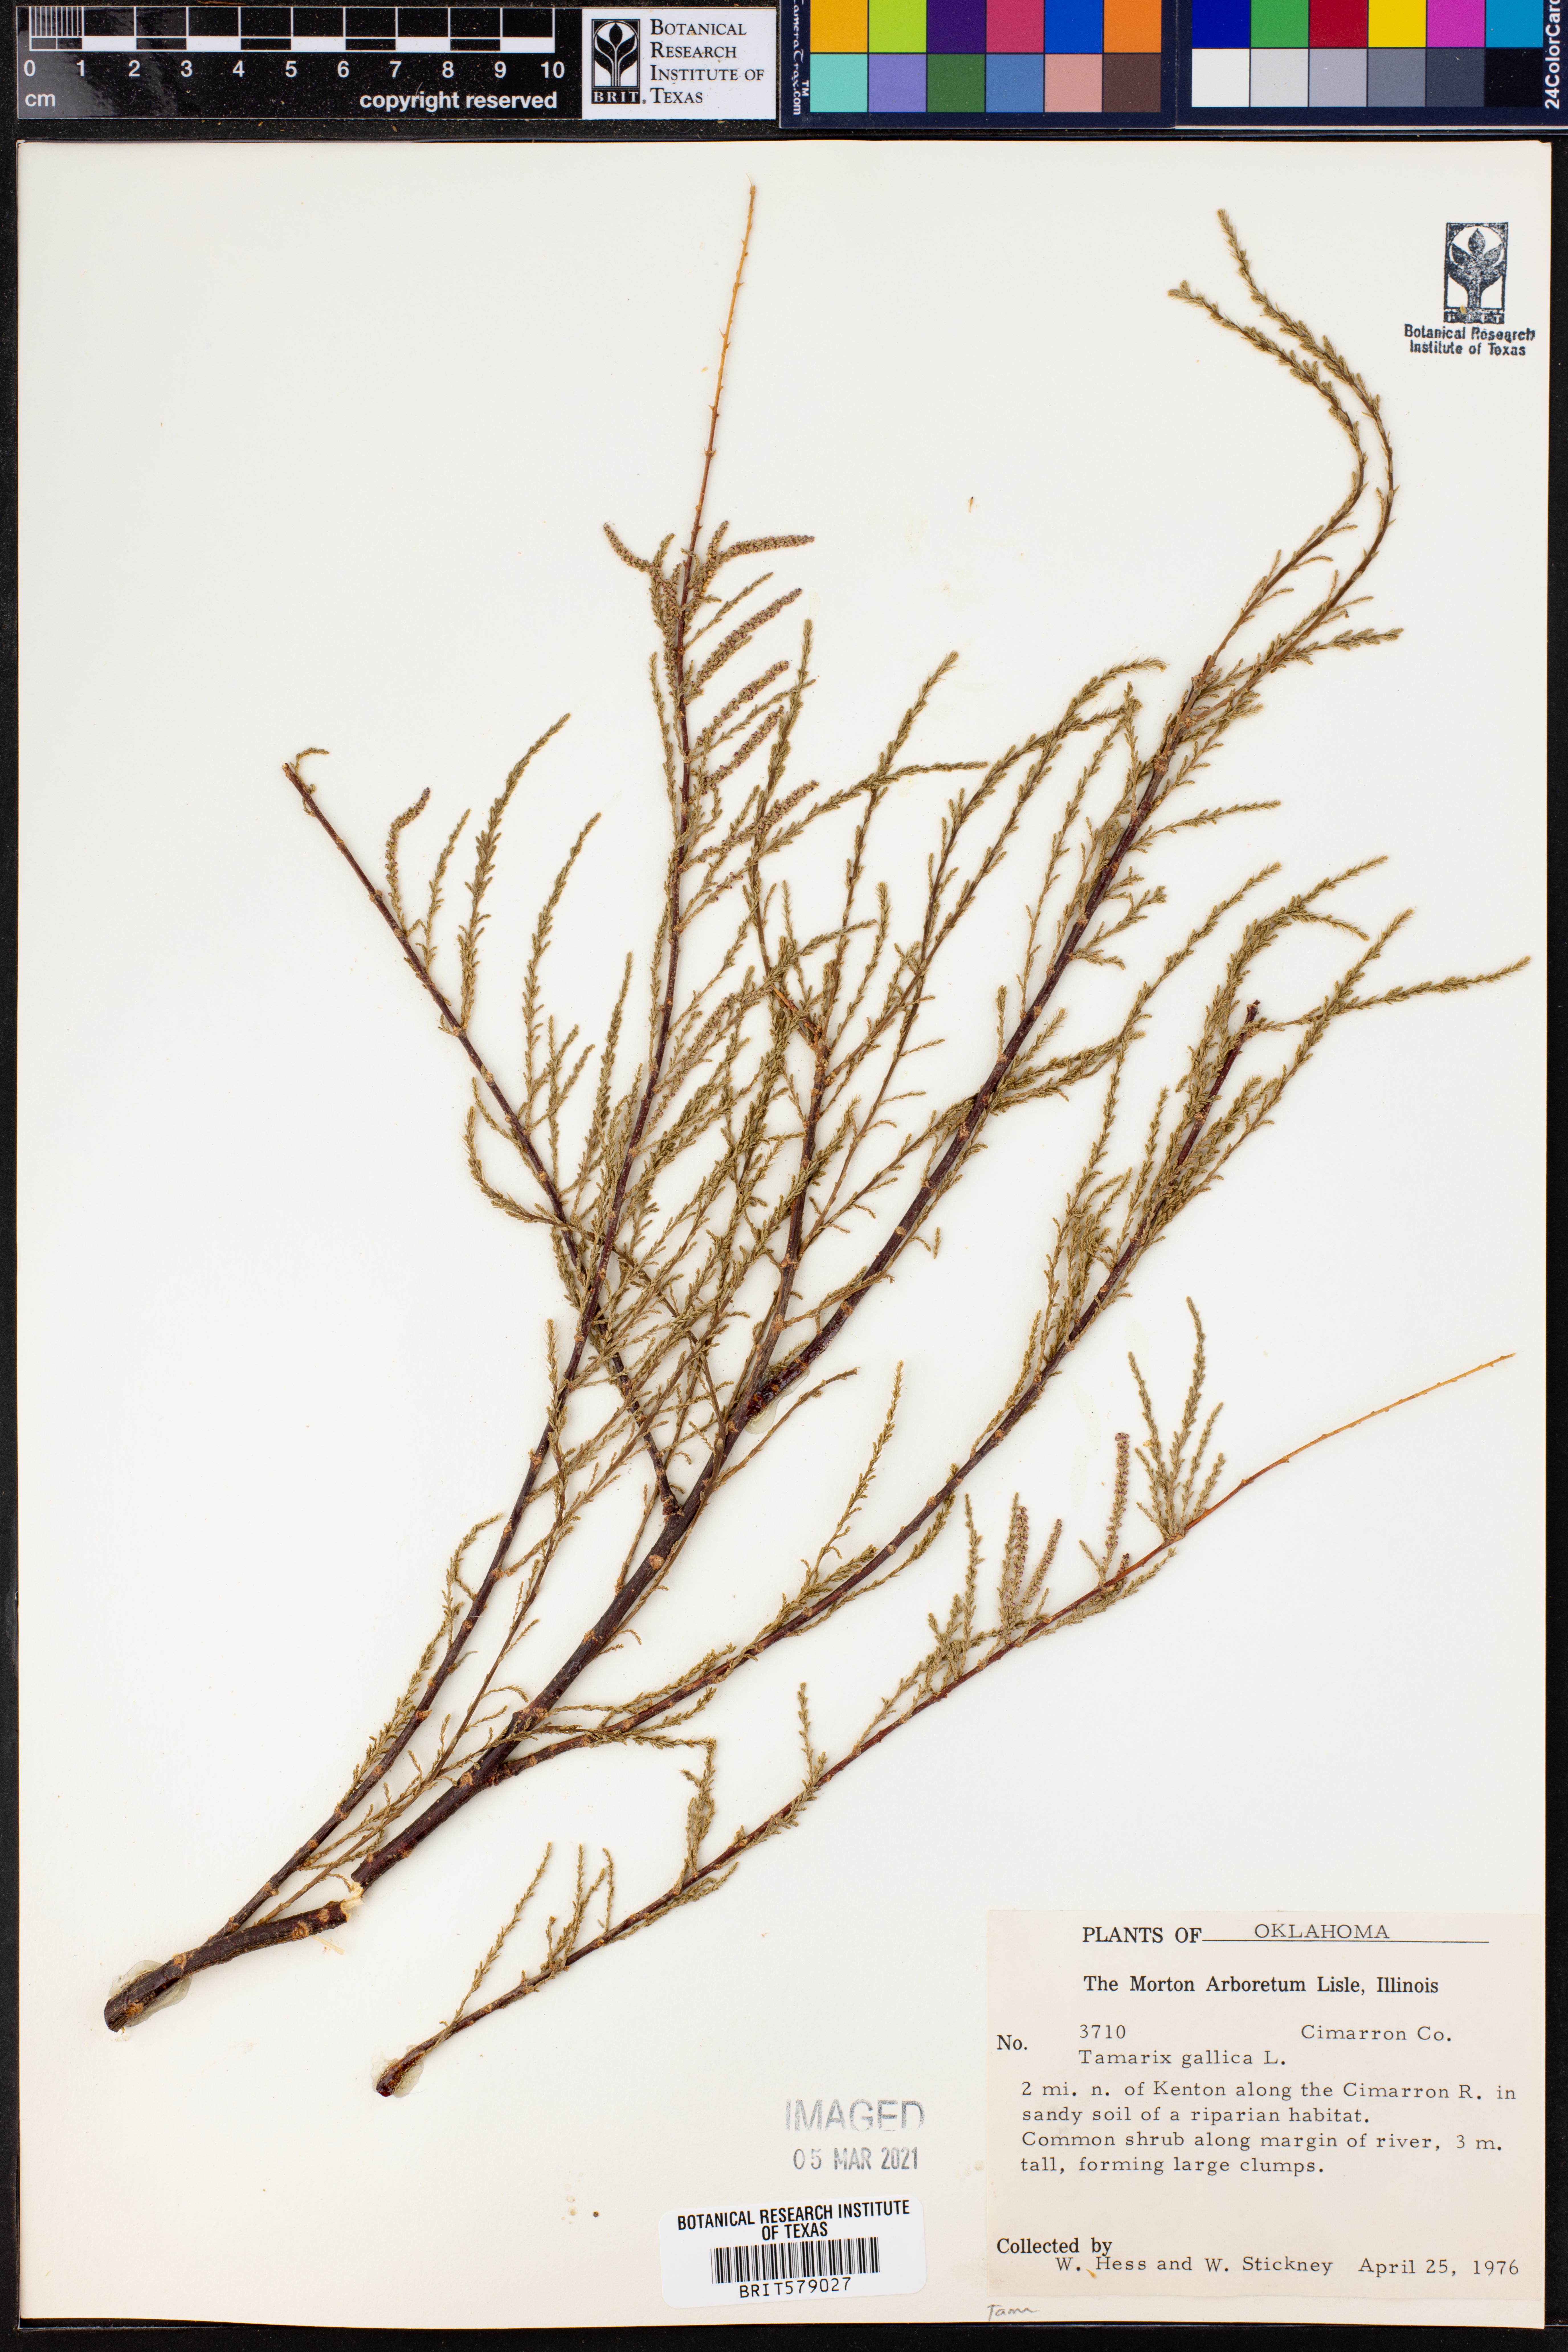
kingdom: Plantae
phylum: Tracheophyta
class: Magnoliopsida
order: Caryophyllales
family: Tamaricaceae
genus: Tamarix
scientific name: Tamarix gallica
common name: Tamarisk
